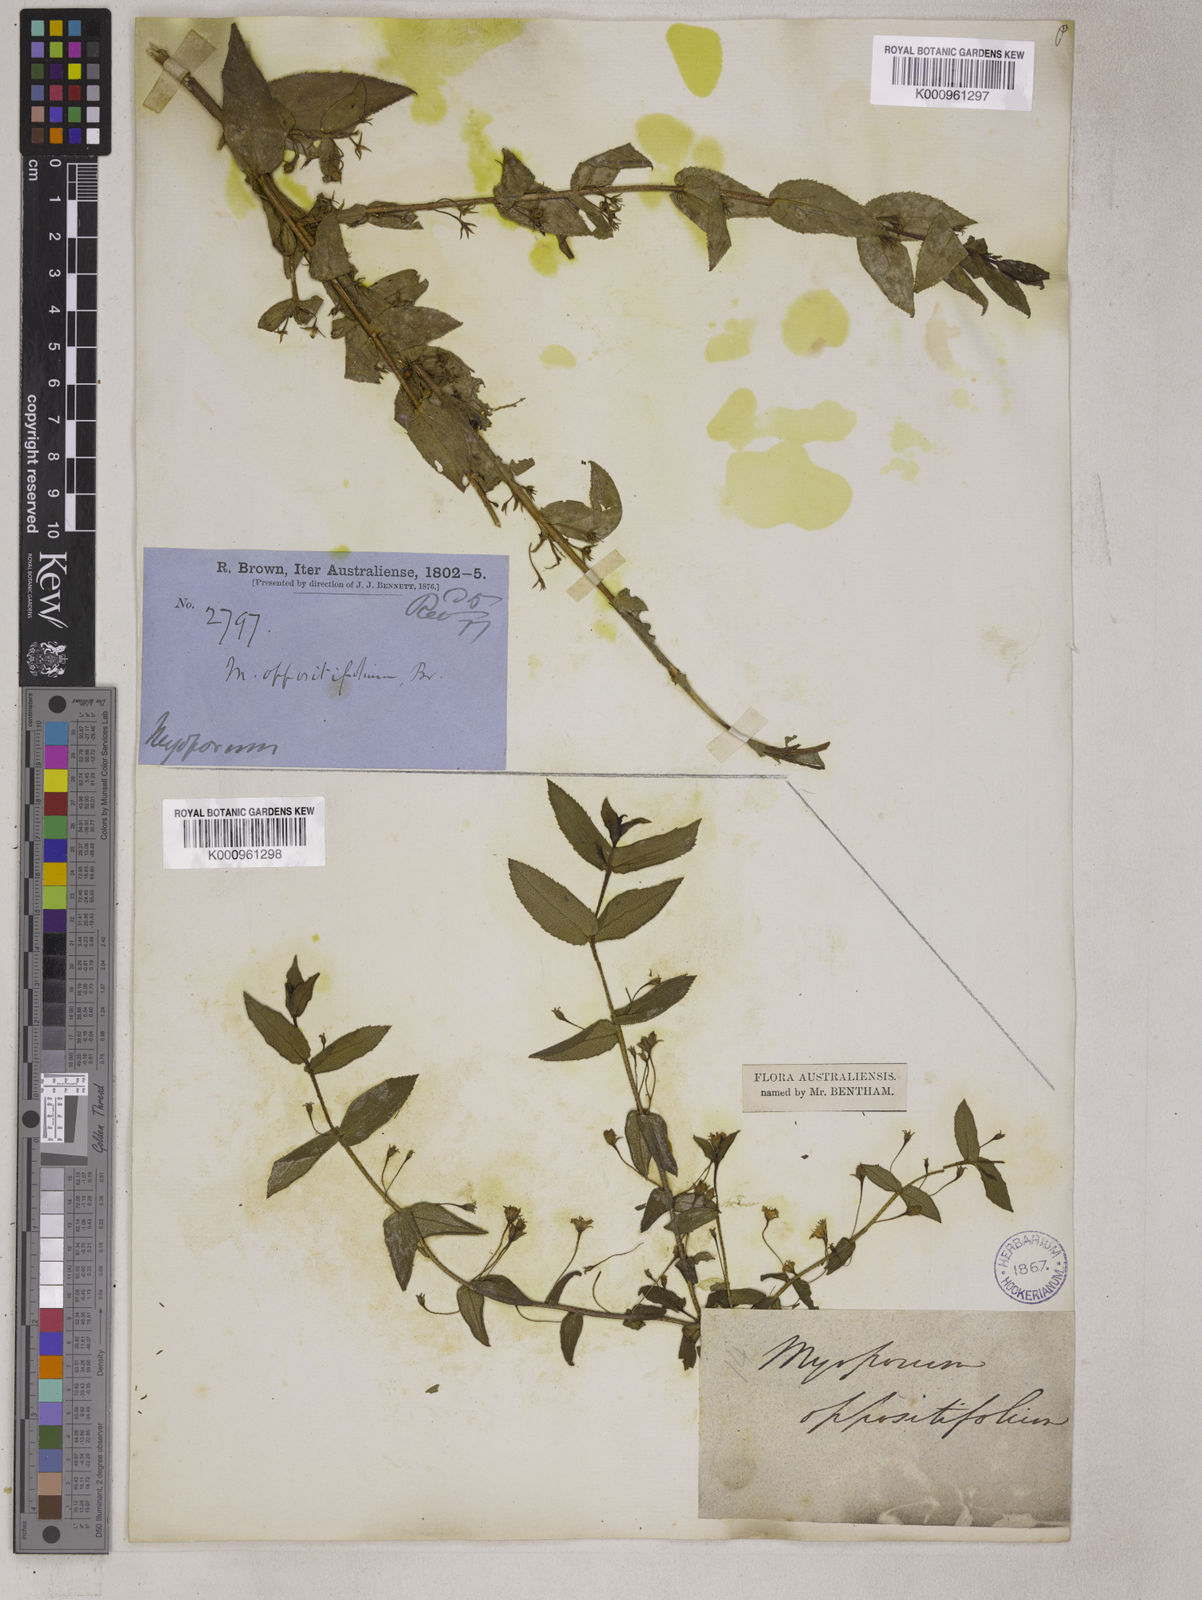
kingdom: Plantae
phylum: Tracheophyta
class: Magnoliopsida
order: Lamiales
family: Scrophulariaceae
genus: Myoporum
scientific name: Myoporum oppositifolium
